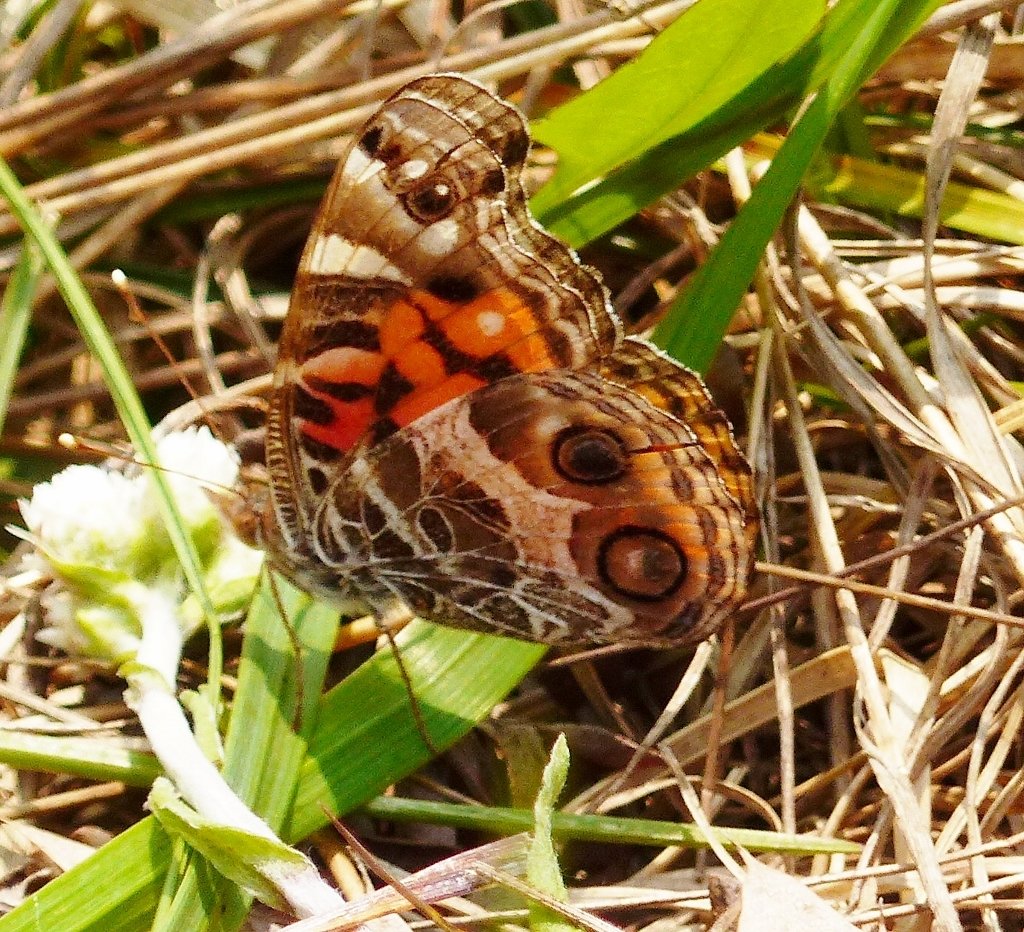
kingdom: Animalia
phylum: Arthropoda
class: Insecta
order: Lepidoptera
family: Nymphalidae
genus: Vanessa
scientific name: Vanessa virginiensis
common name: American Lady
